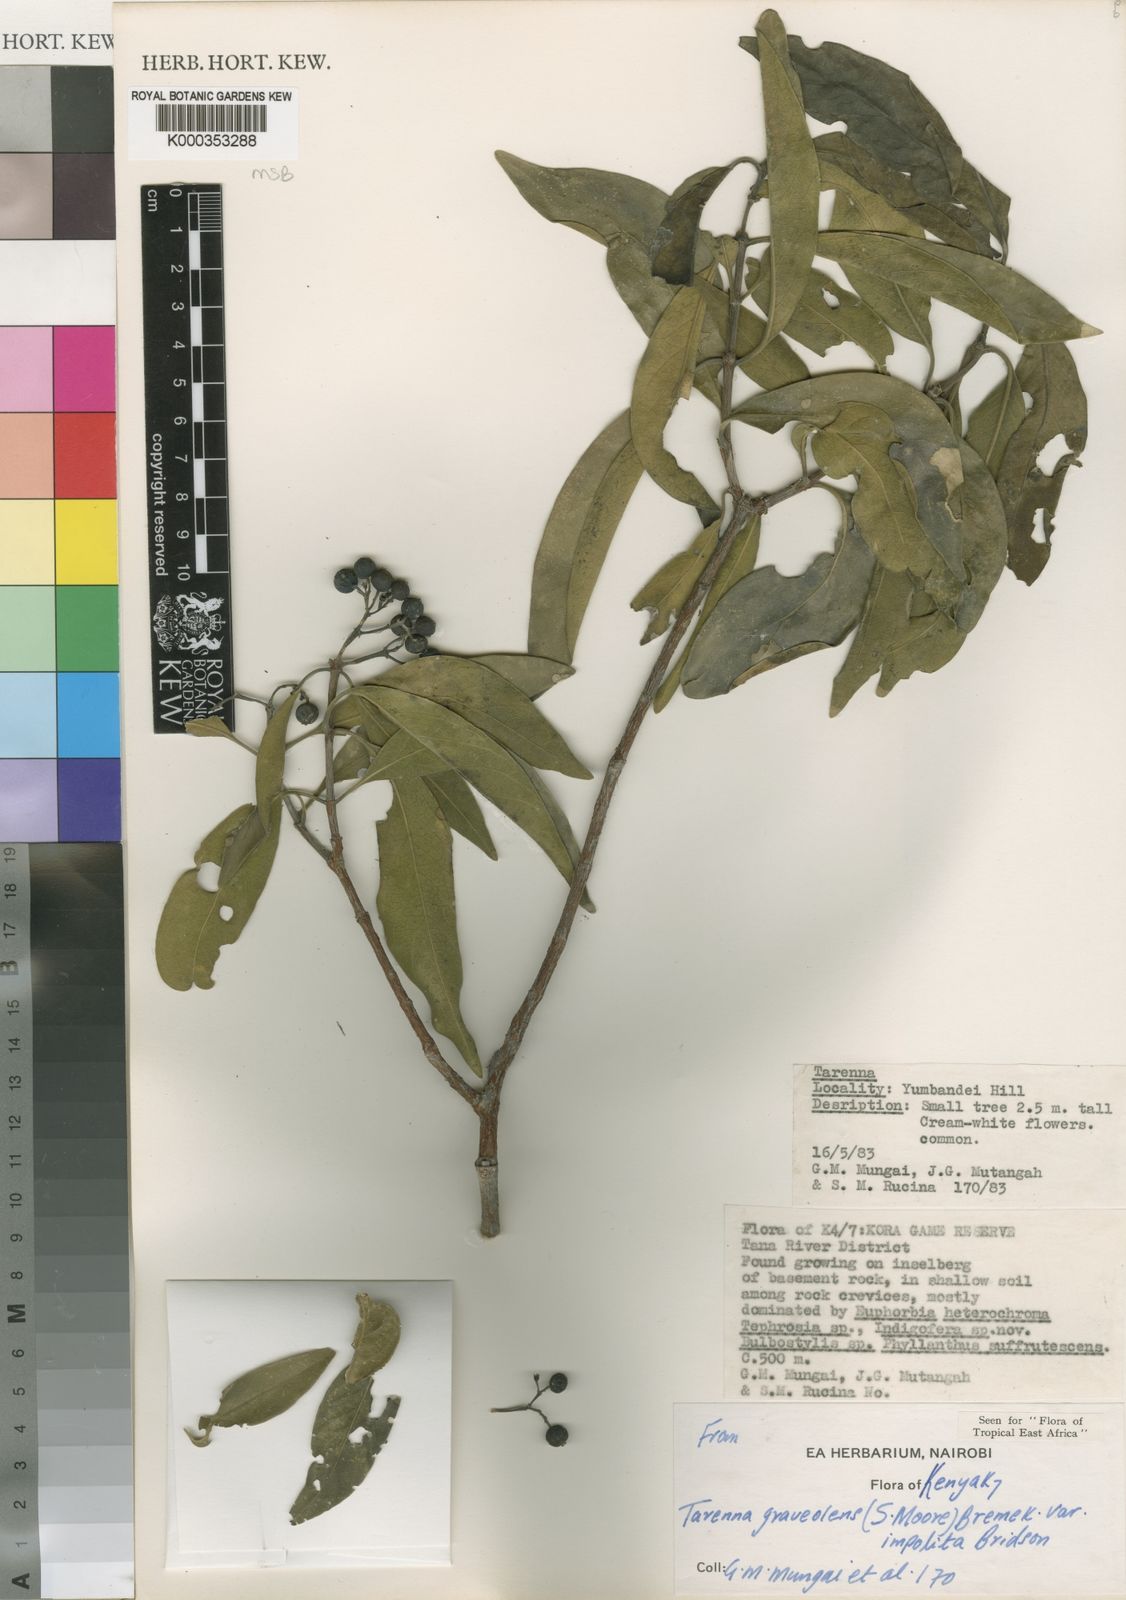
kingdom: Plantae
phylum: Tracheophyta
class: Magnoliopsida
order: Gentianales
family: Rubiaceae
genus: Coptosperma
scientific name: Coptosperma graveolens
